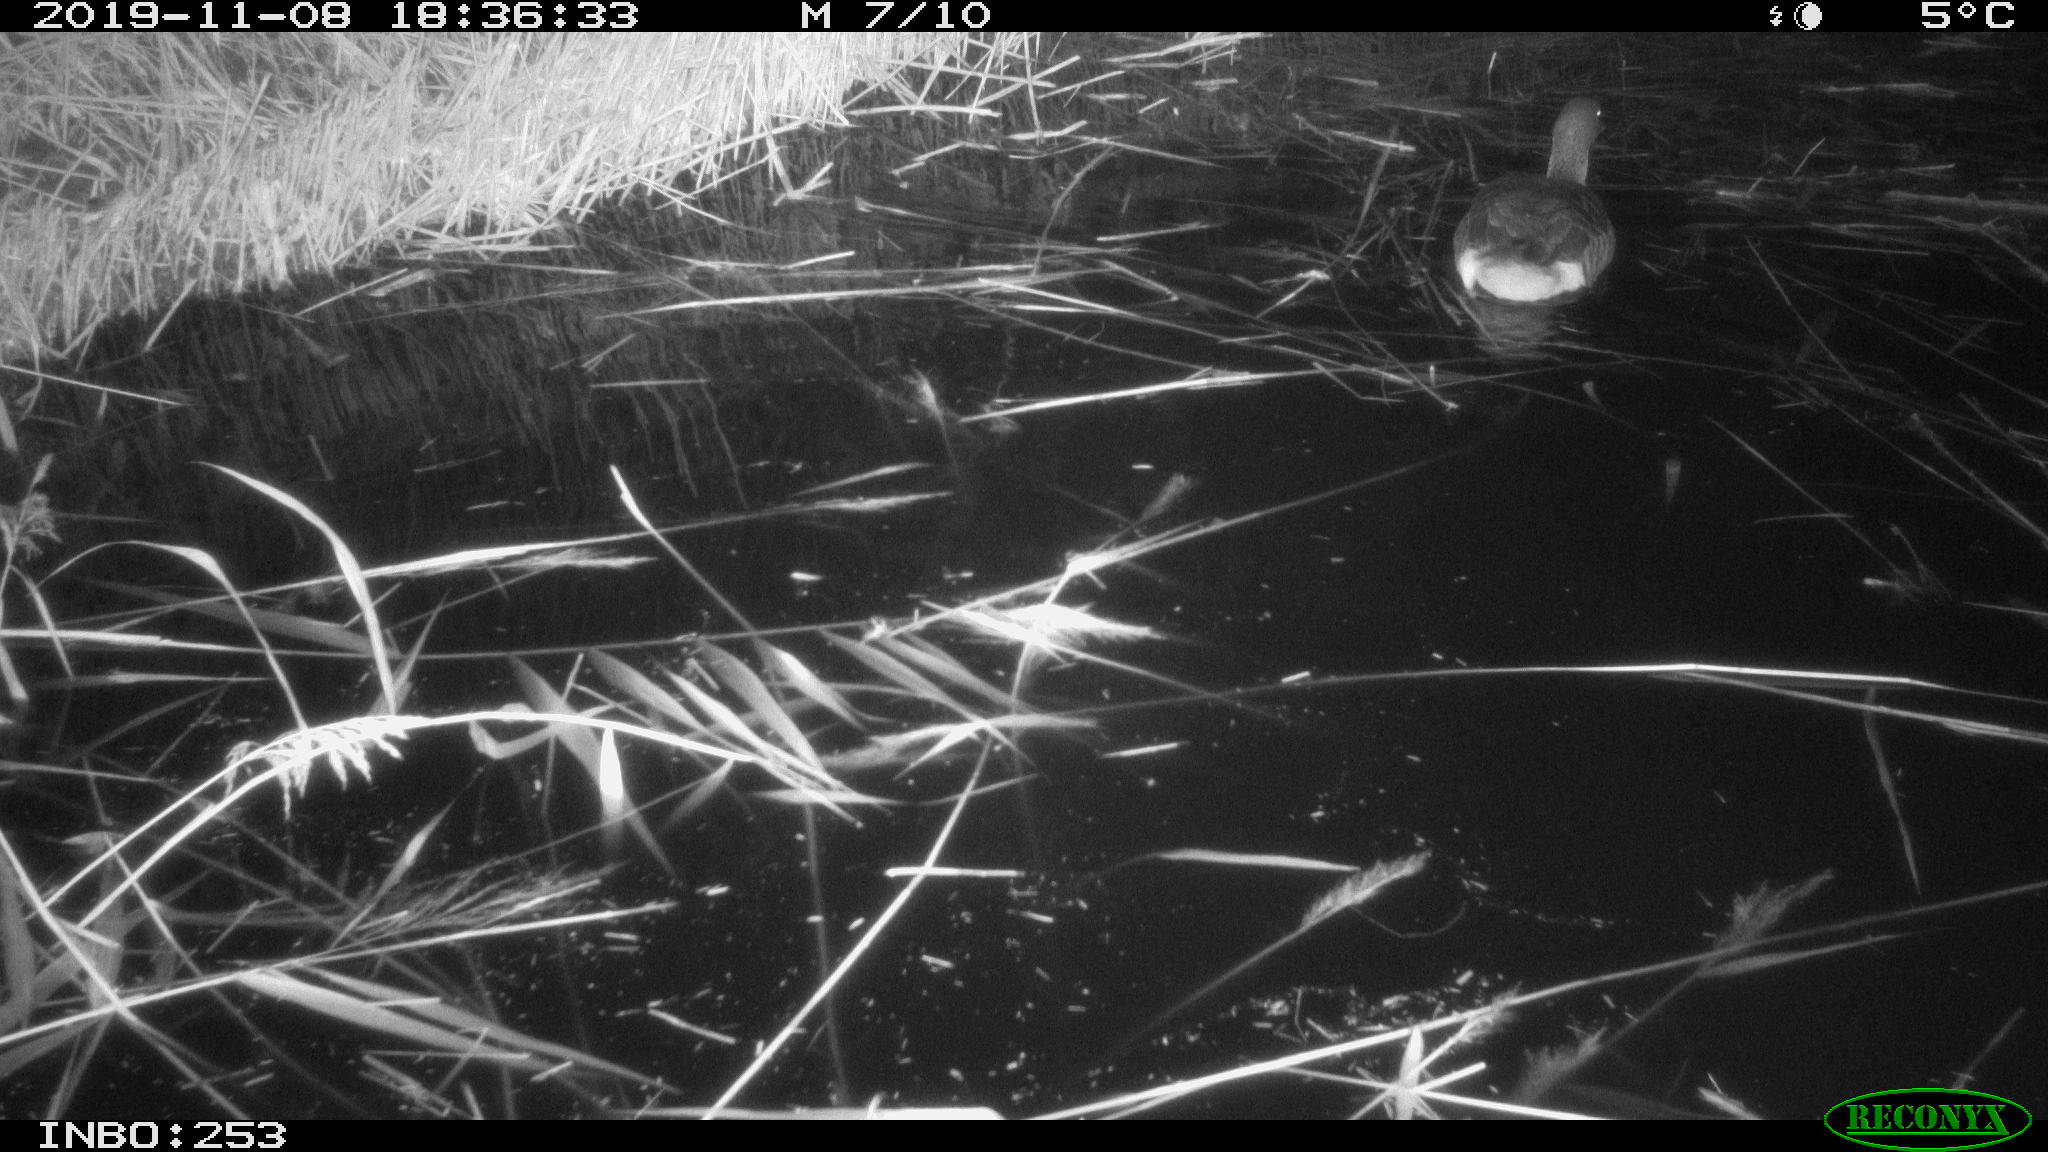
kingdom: Animalia
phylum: Chordata
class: Aves
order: Anseriformes
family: Anatidae
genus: Anser
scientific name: Anser anser
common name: Greylag goose
